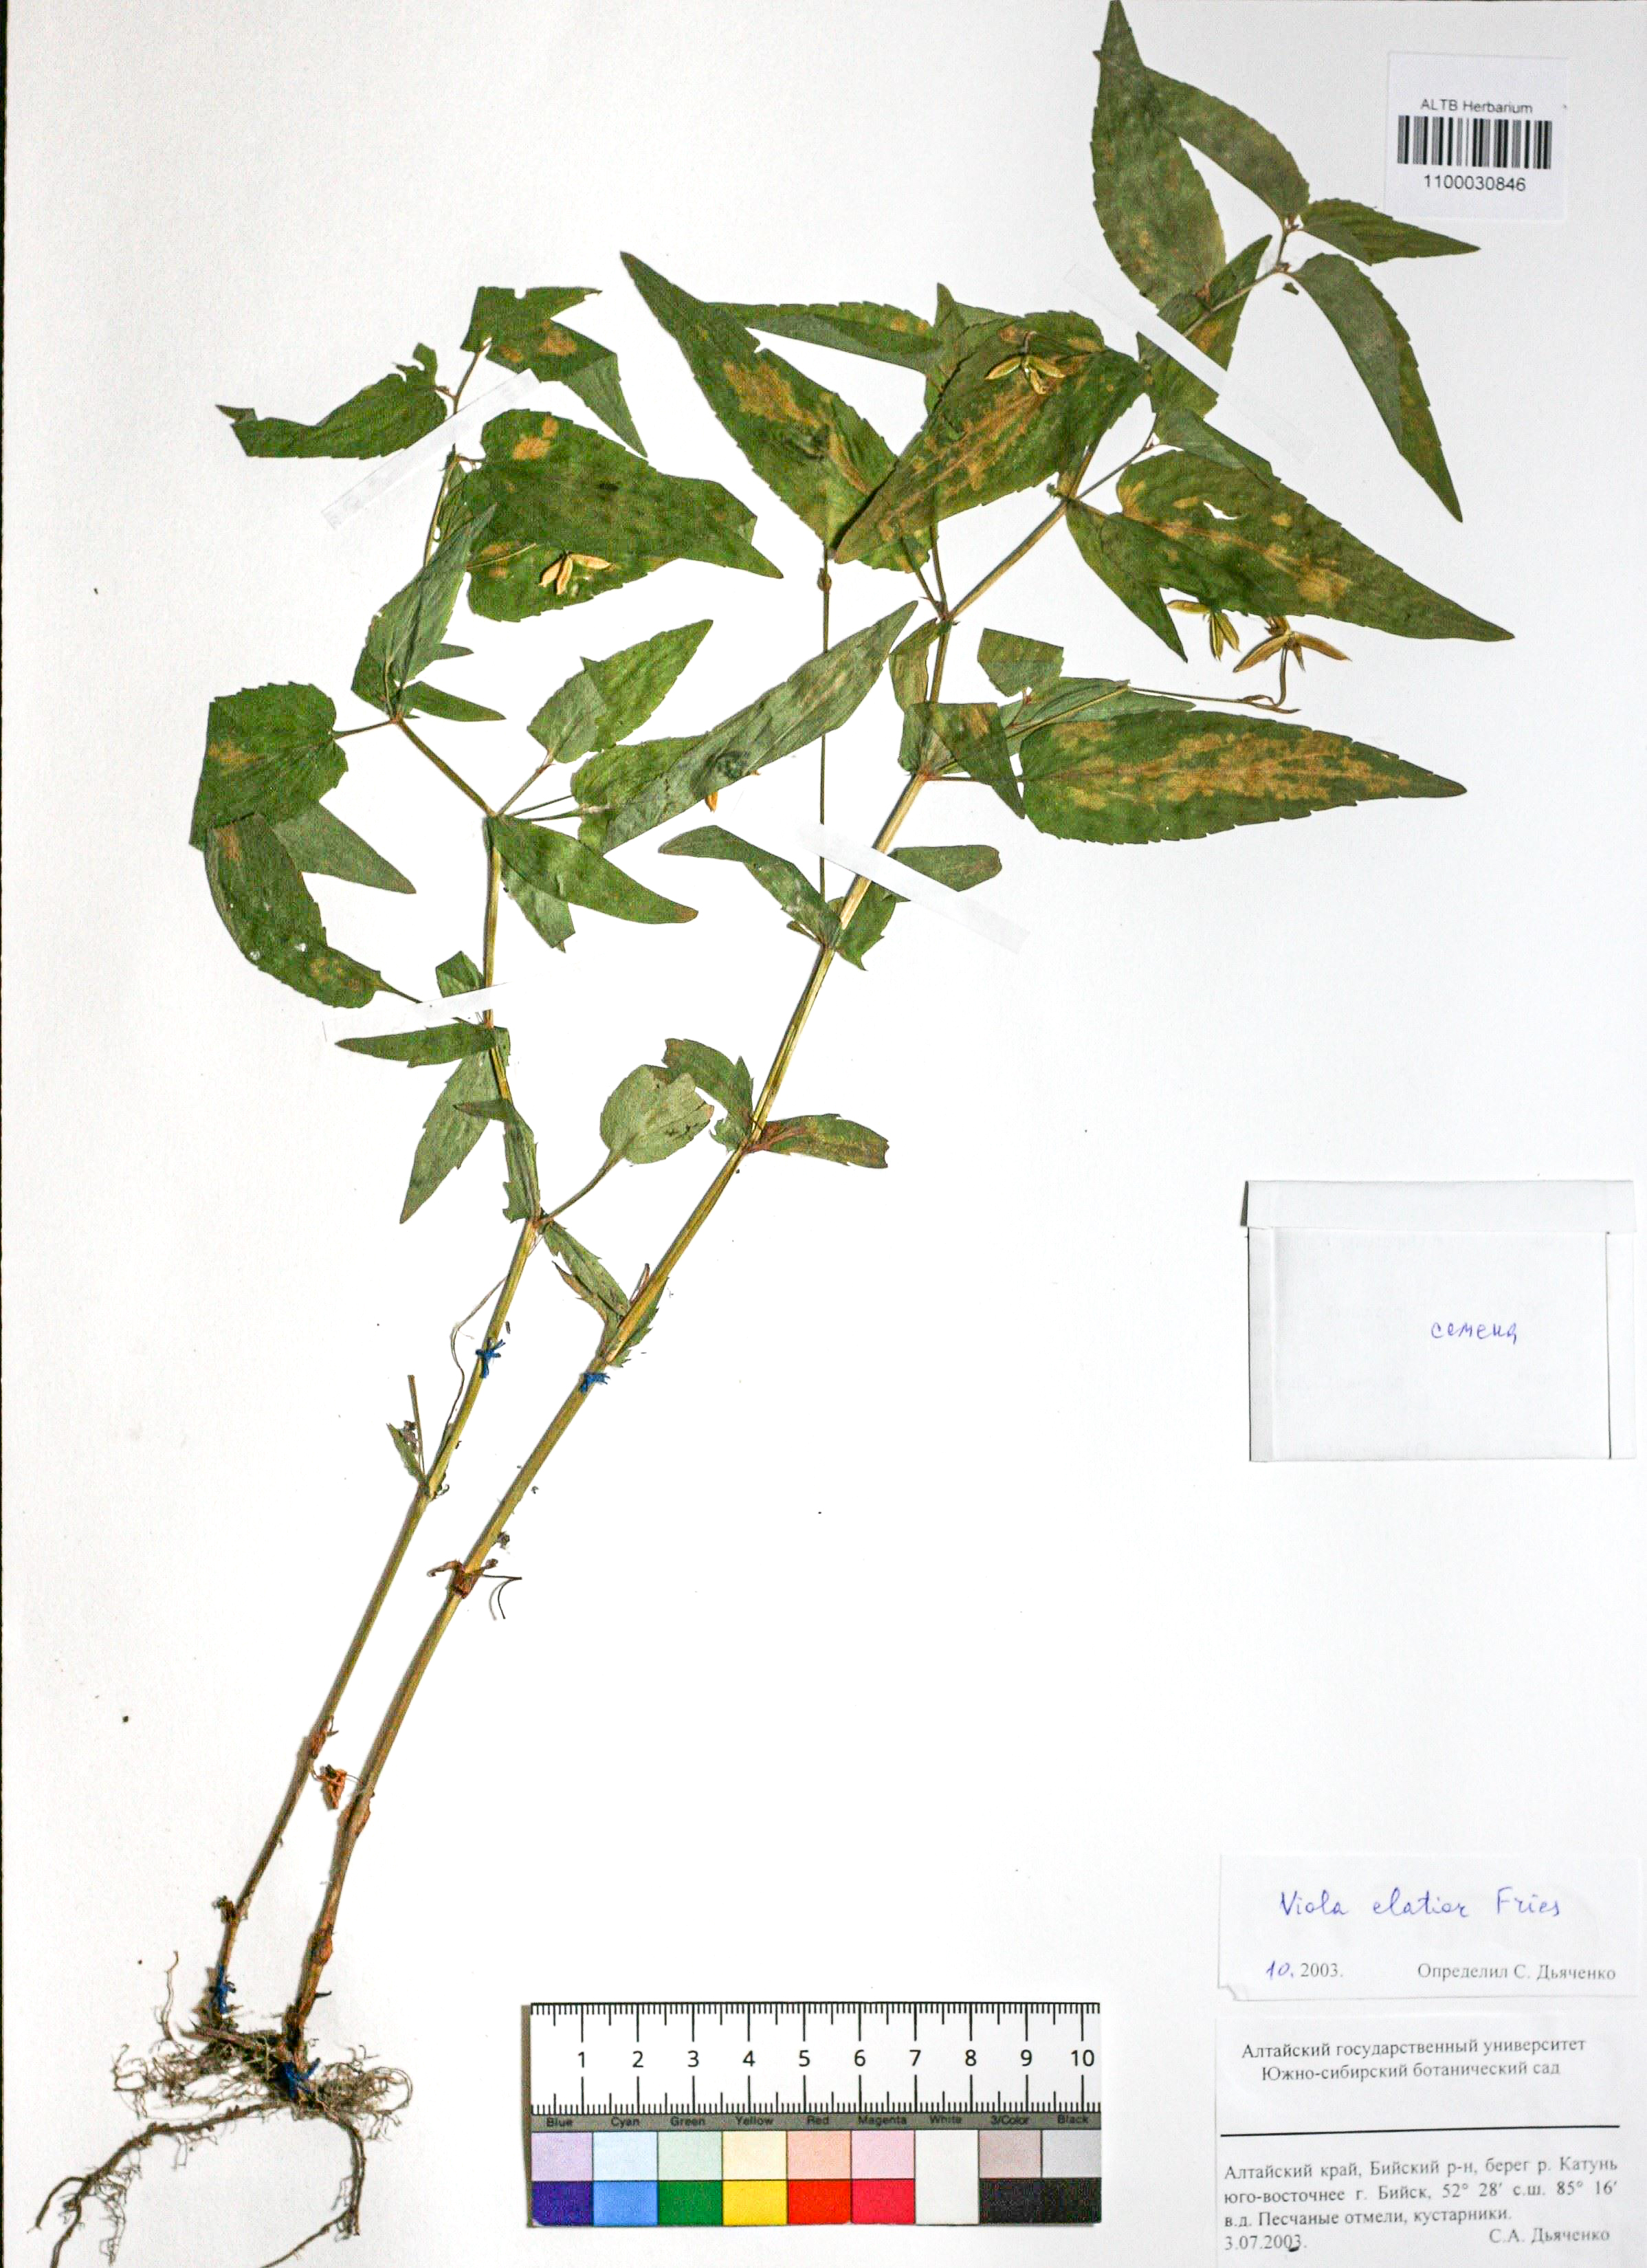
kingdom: Plantae
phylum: Tracheophyta
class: Magnoliopsida
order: Malpighiales
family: Violaceae
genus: Viola
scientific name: Viola elatior
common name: Tall violet
